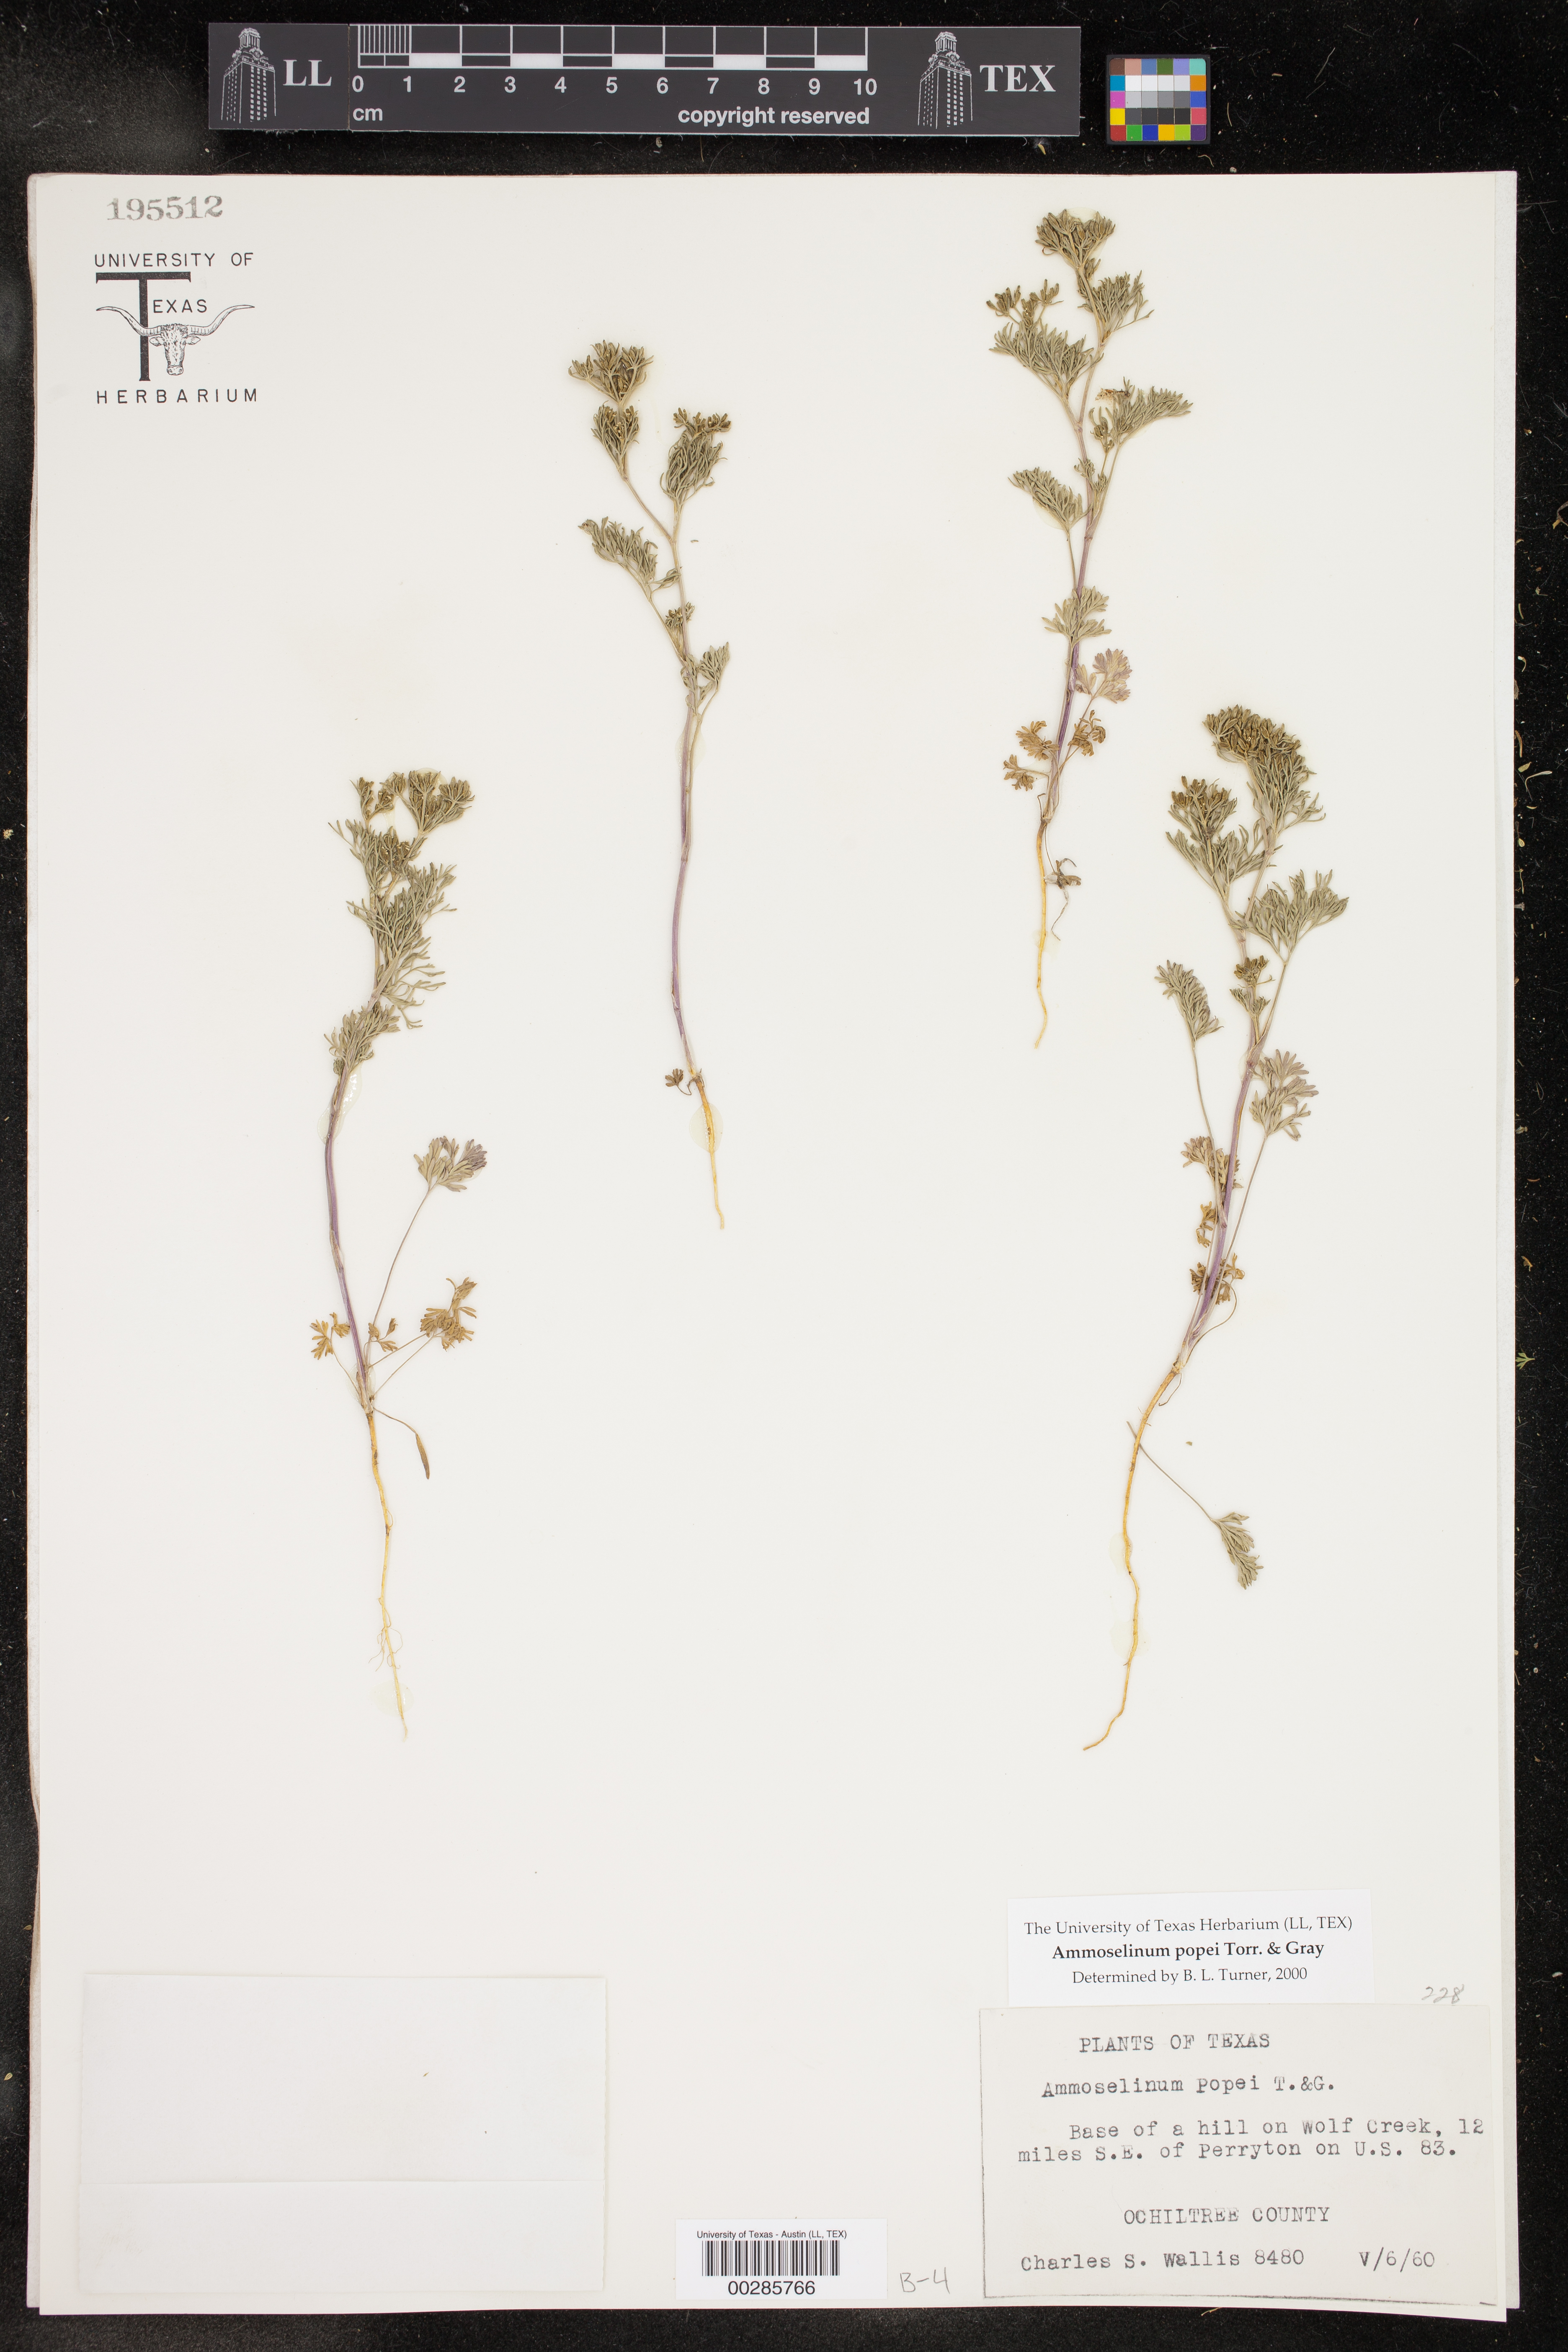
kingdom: Plantae
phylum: Tracheophyta
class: Magnoliopsida
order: Apiales
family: Apiaceae
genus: Ammoselinum
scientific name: Ammoselinum popei
